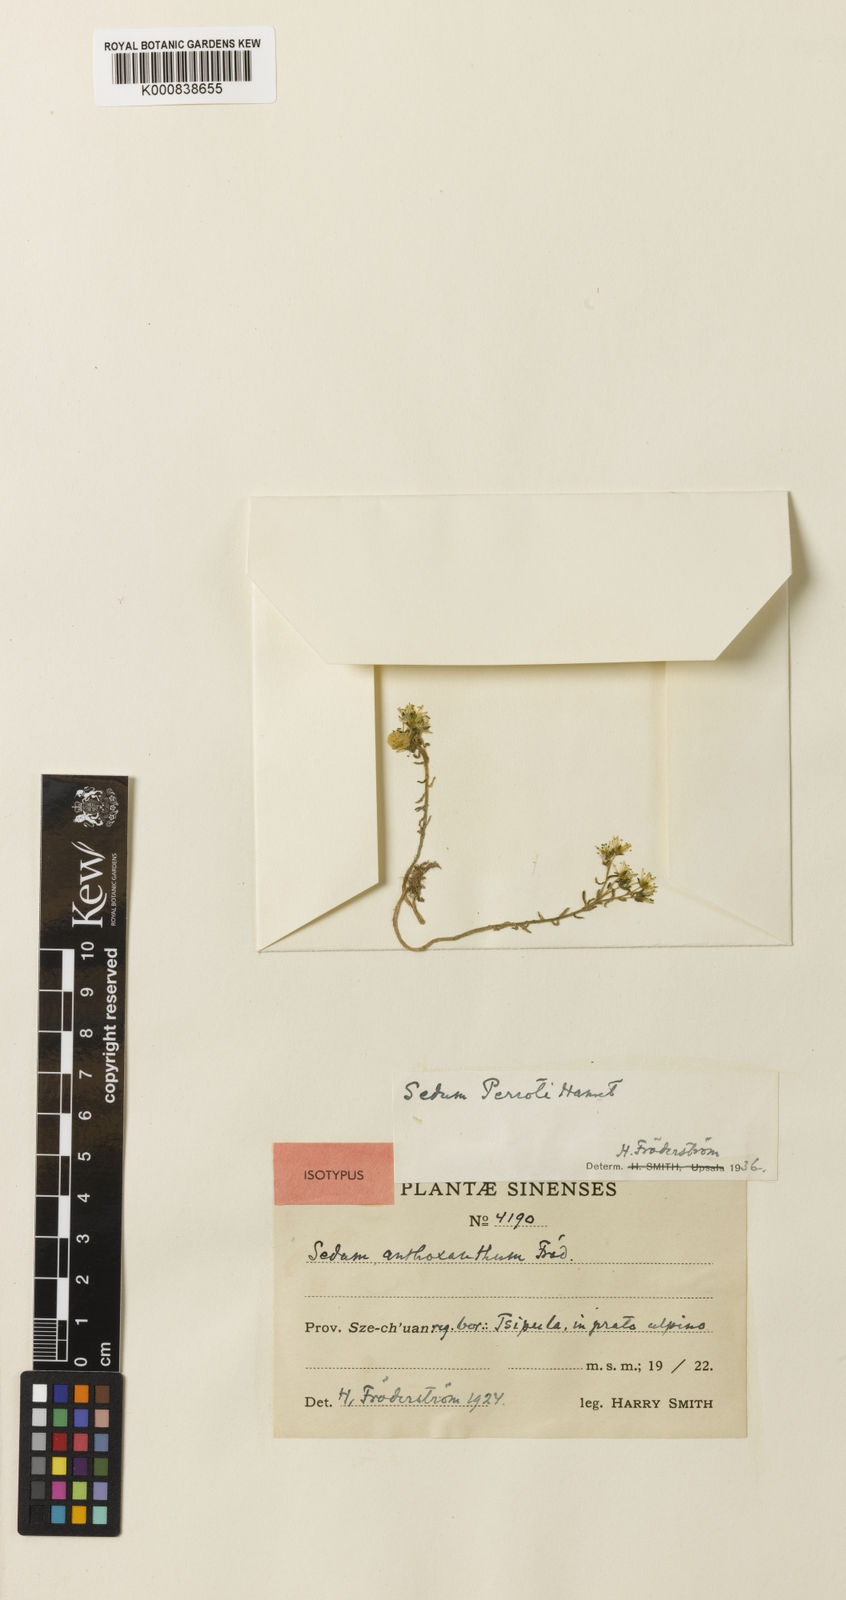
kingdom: Plantae
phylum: Tracheophyta
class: Magnoliopsida
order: Saxifragales
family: Crassulaceae
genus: Sedum
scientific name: Sedum perrotii
